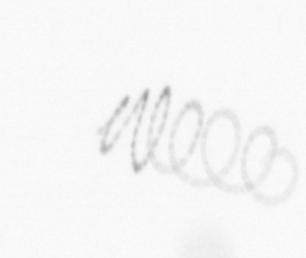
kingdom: Chromista
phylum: Ochrophyta
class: Bacillariophyceae
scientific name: Bacillariophyceae
